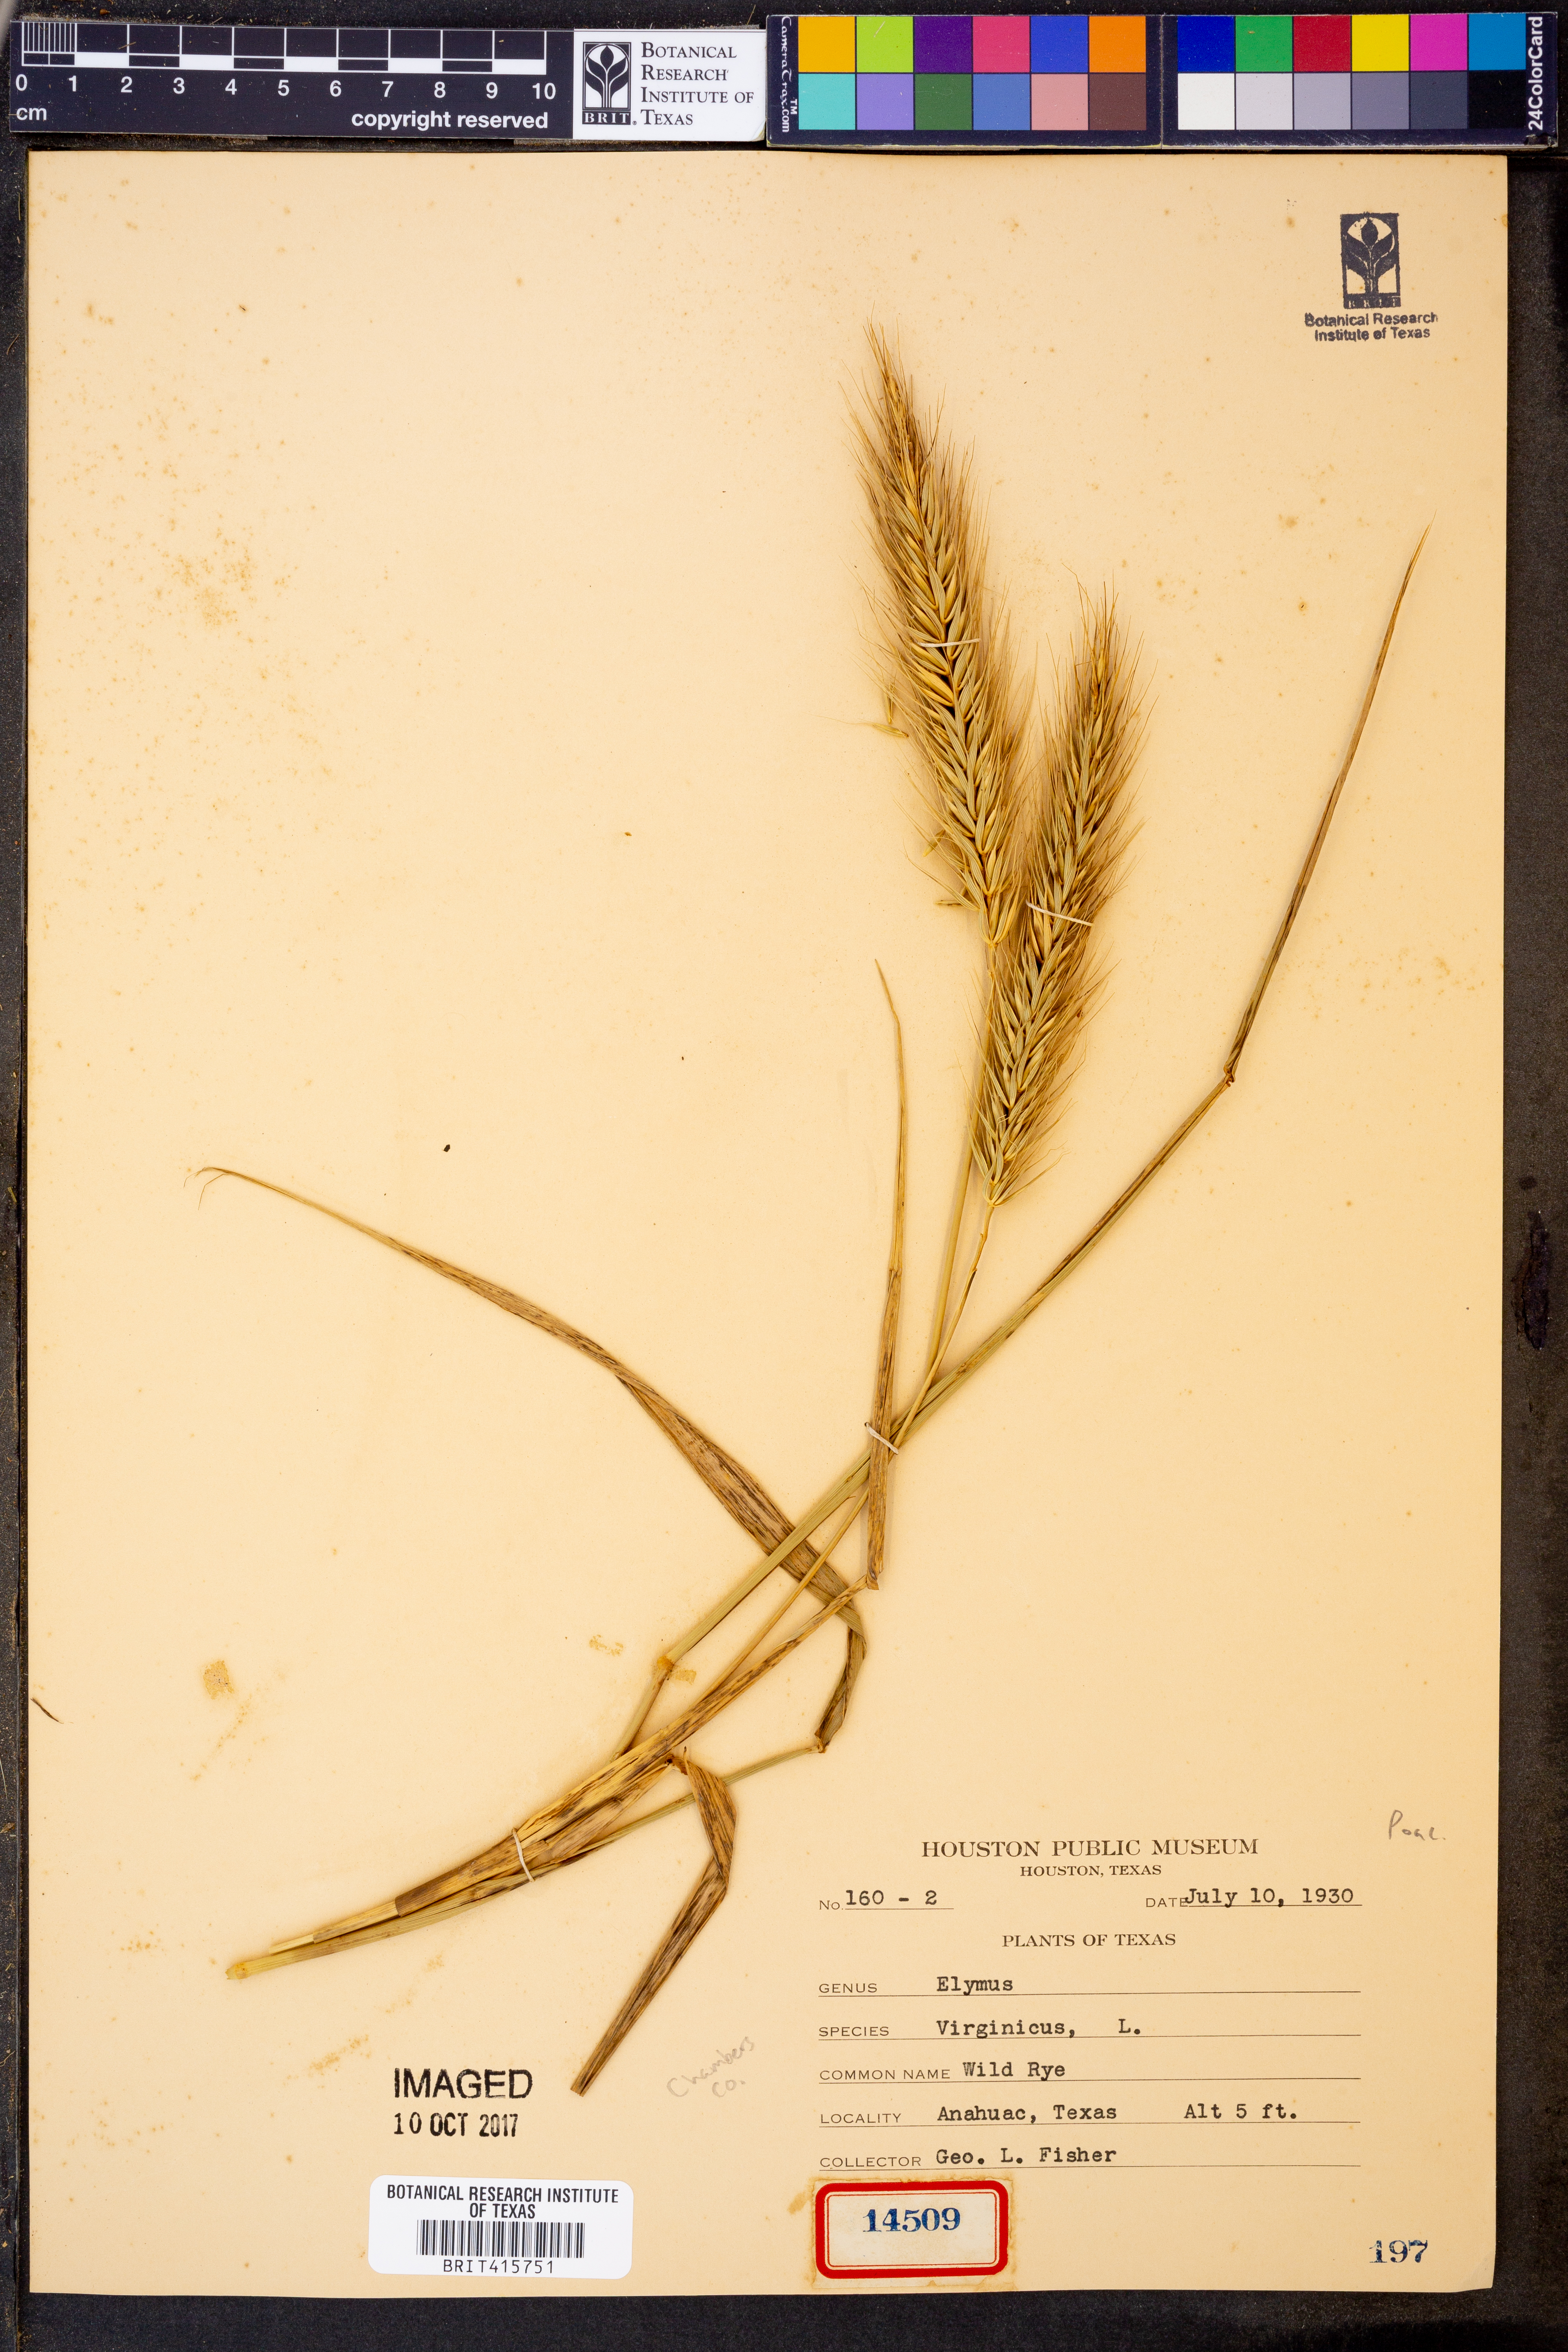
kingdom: Plantae
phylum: Tracheophyta
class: Liliopsida
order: Poales
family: Poaceae
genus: Elymus
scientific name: Elymus virginicus
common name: Common eastern wildrye
